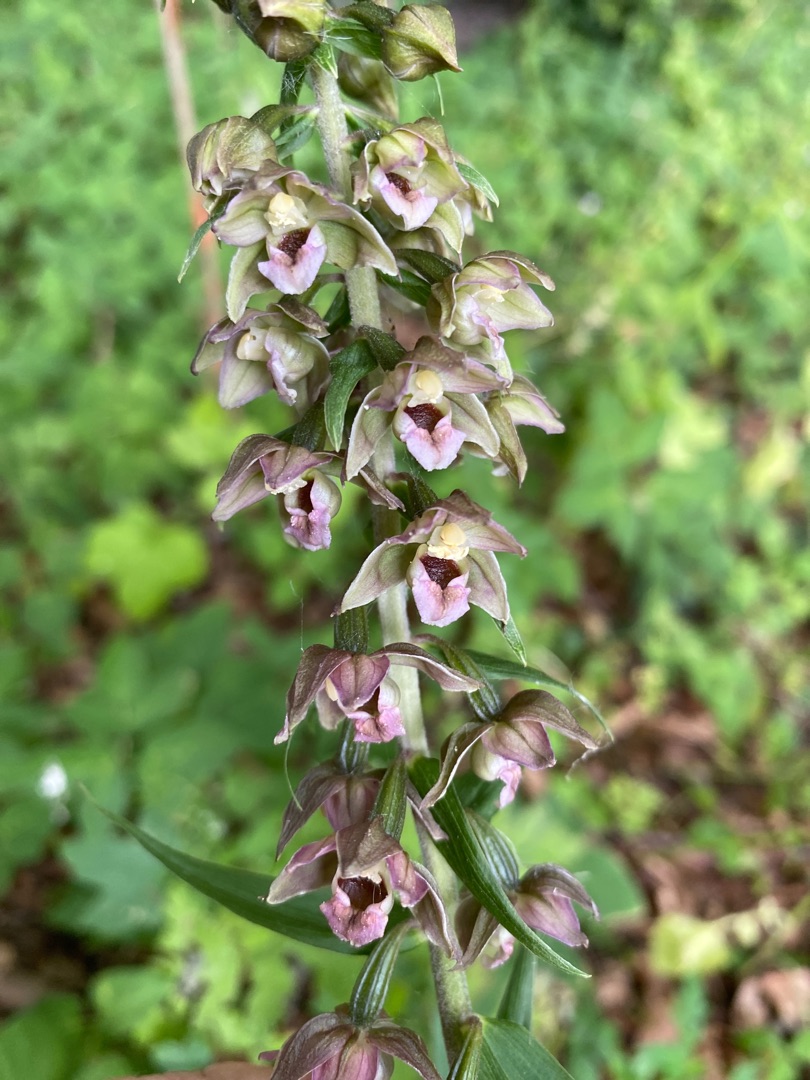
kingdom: Plantae
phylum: Tracheophyta
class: Liliopsida
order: Asparagales
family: Orchidaceae
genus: Epipactis
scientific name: Epipactis helleborine
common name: Skov-hullæbe
